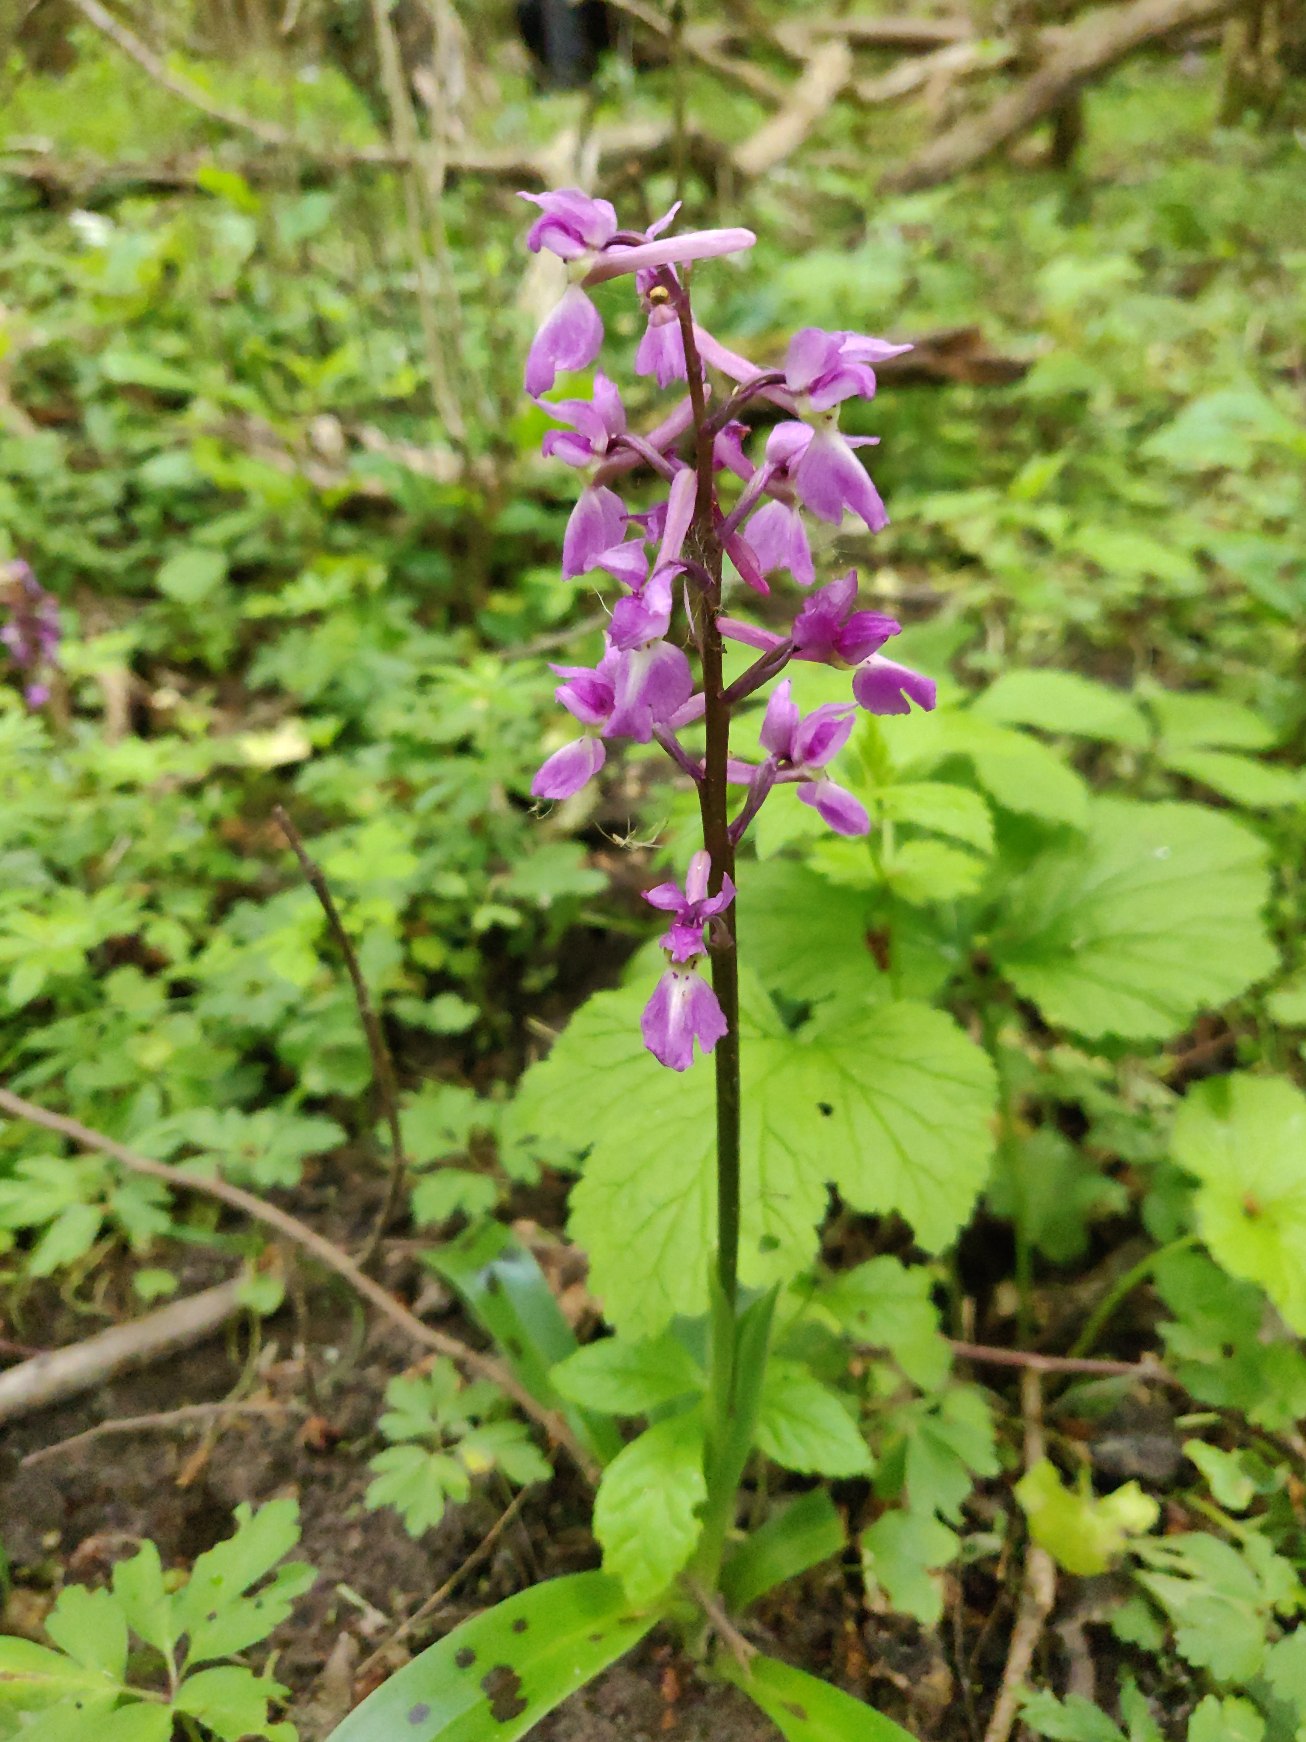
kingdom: Plantae
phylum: Tracheophyta
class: Liliopsida
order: Asparagales
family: Orchidaceae
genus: Orchis
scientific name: Orchis mascula
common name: Tyndakset gøgeurt
